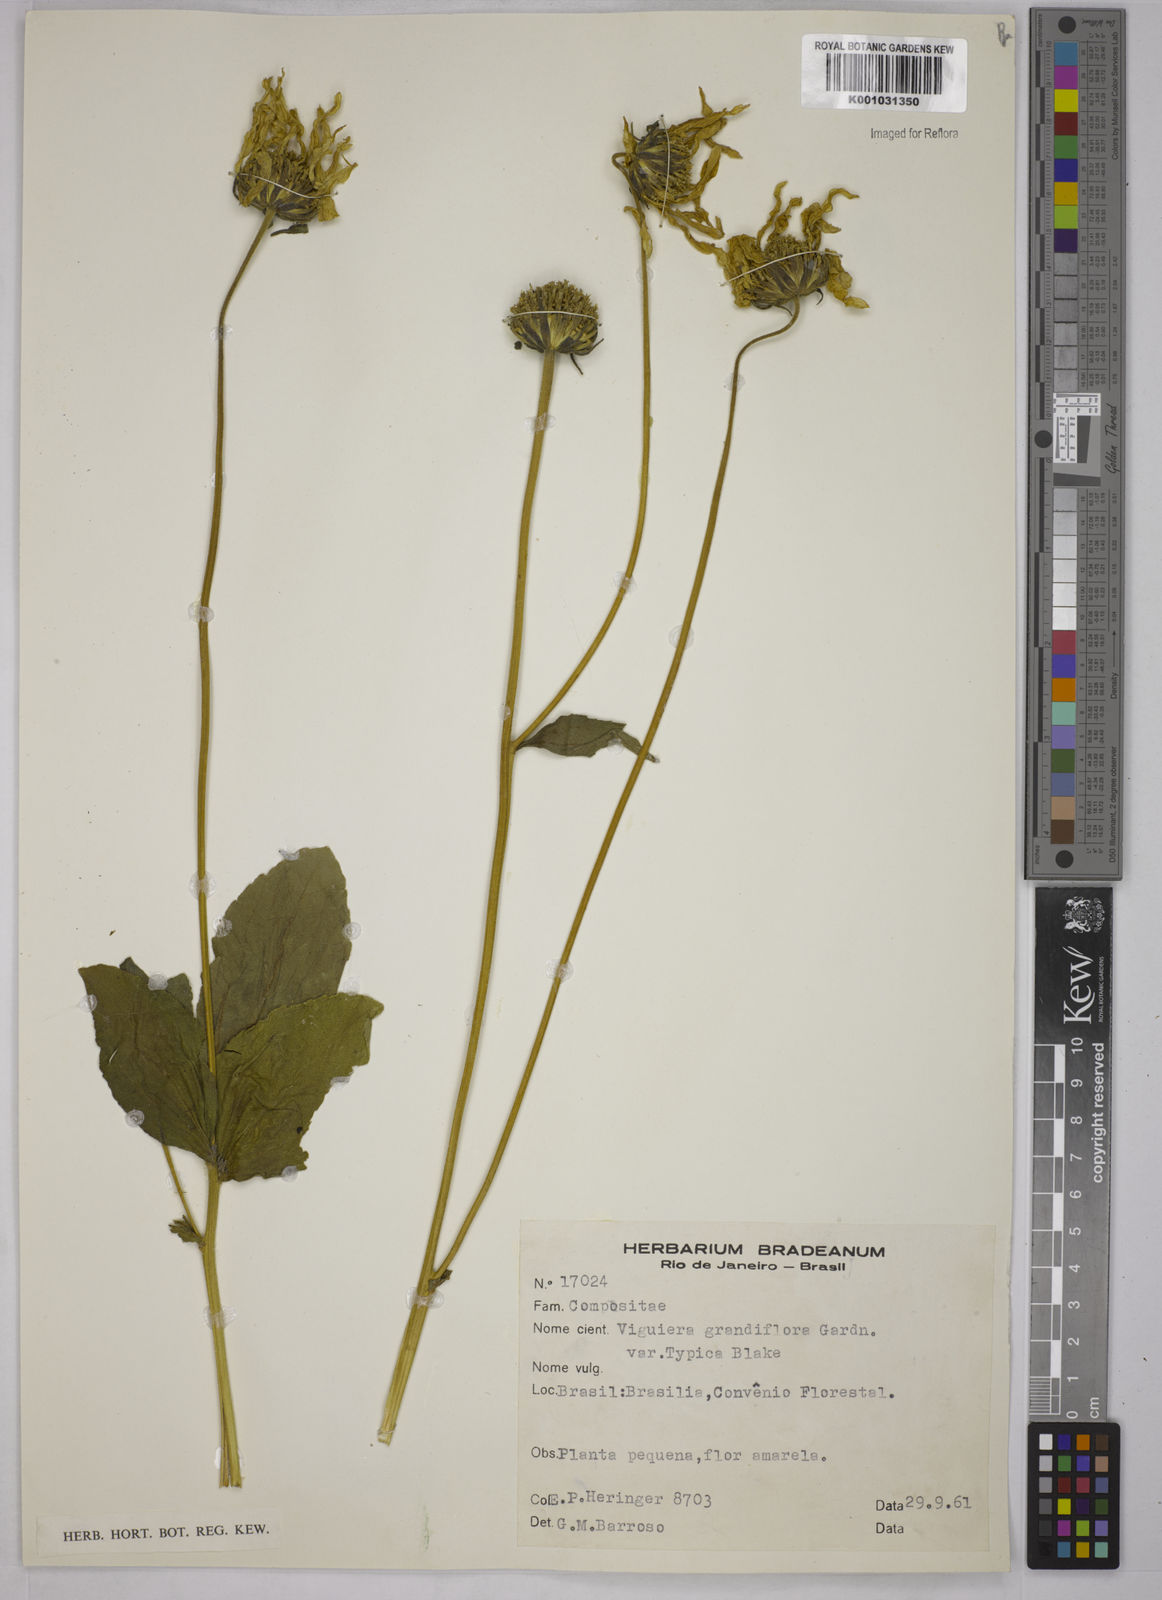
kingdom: Plantae
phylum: Tracheophyta
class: Magnoliopsida
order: Asterales
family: Asteraceae
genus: Aldama
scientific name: Aldama grandiflora
